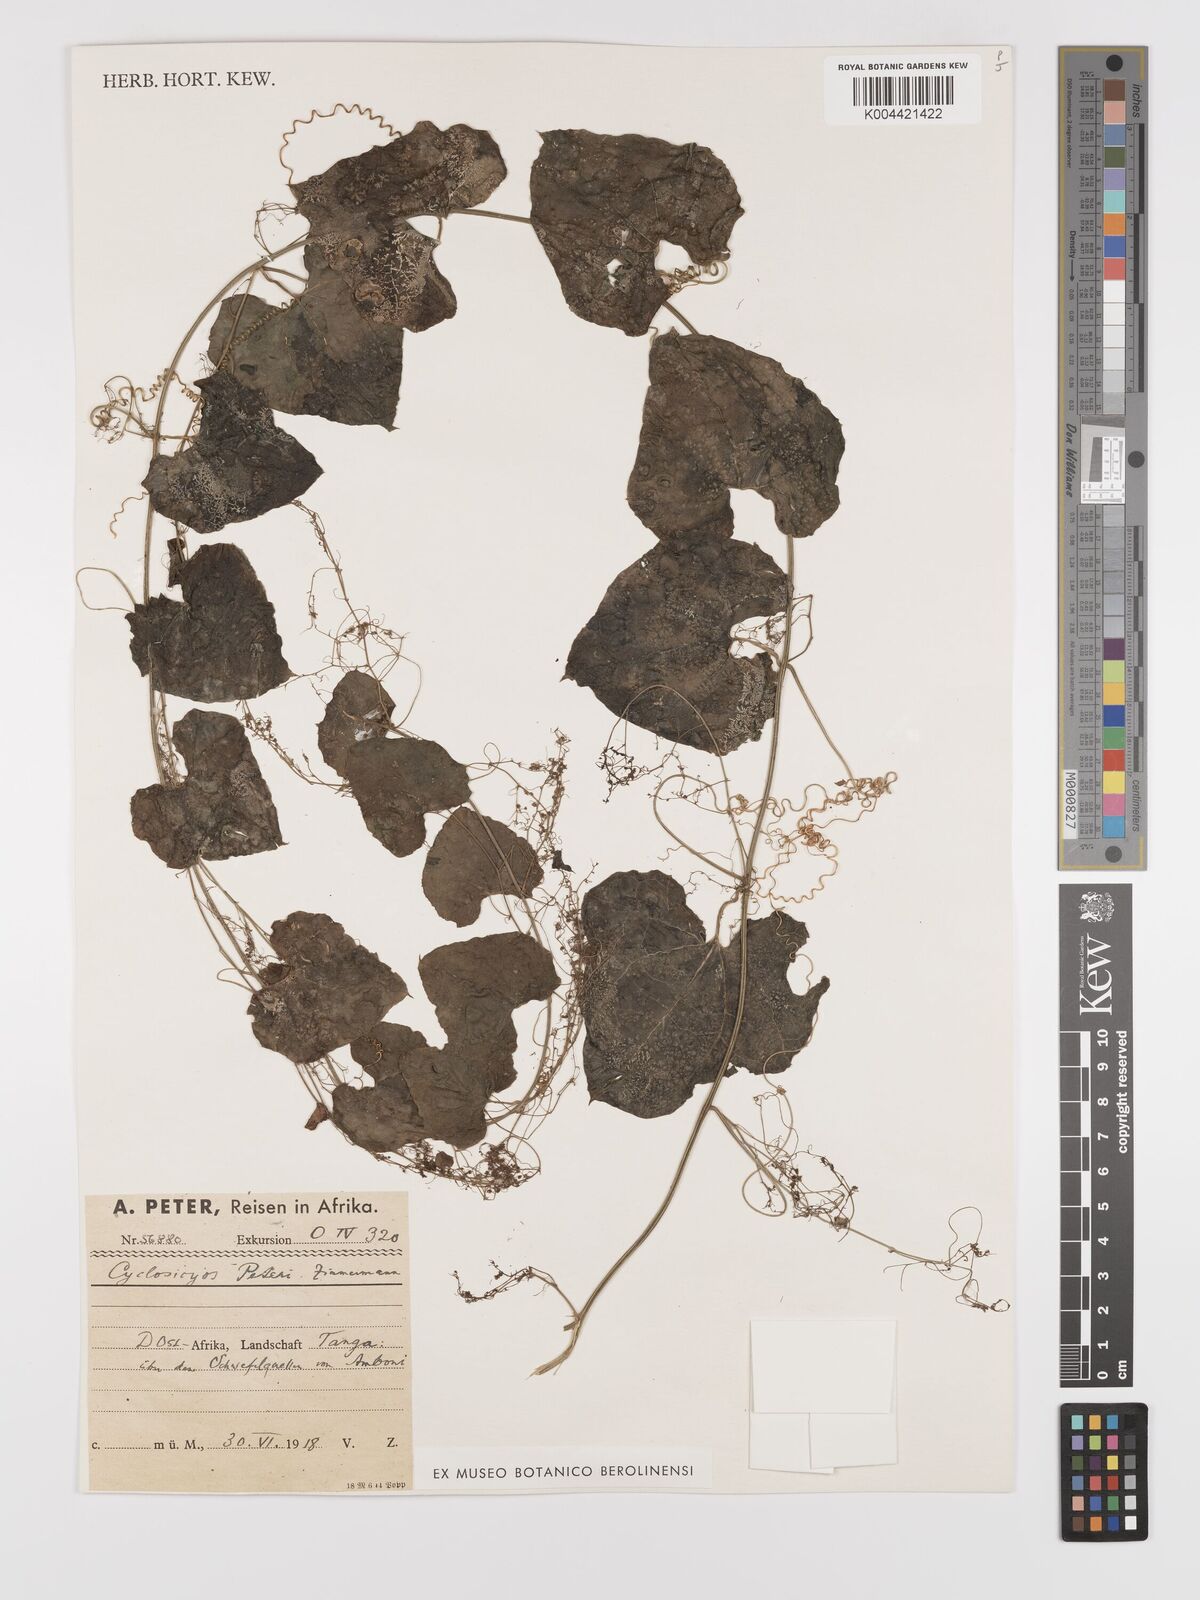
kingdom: Plantae
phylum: Tracheophyta
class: Magnoliopsida
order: Cucurbitales
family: Cucurbitaceae
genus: Cyclantheropsis
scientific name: Cyclantheropsis parviflora
